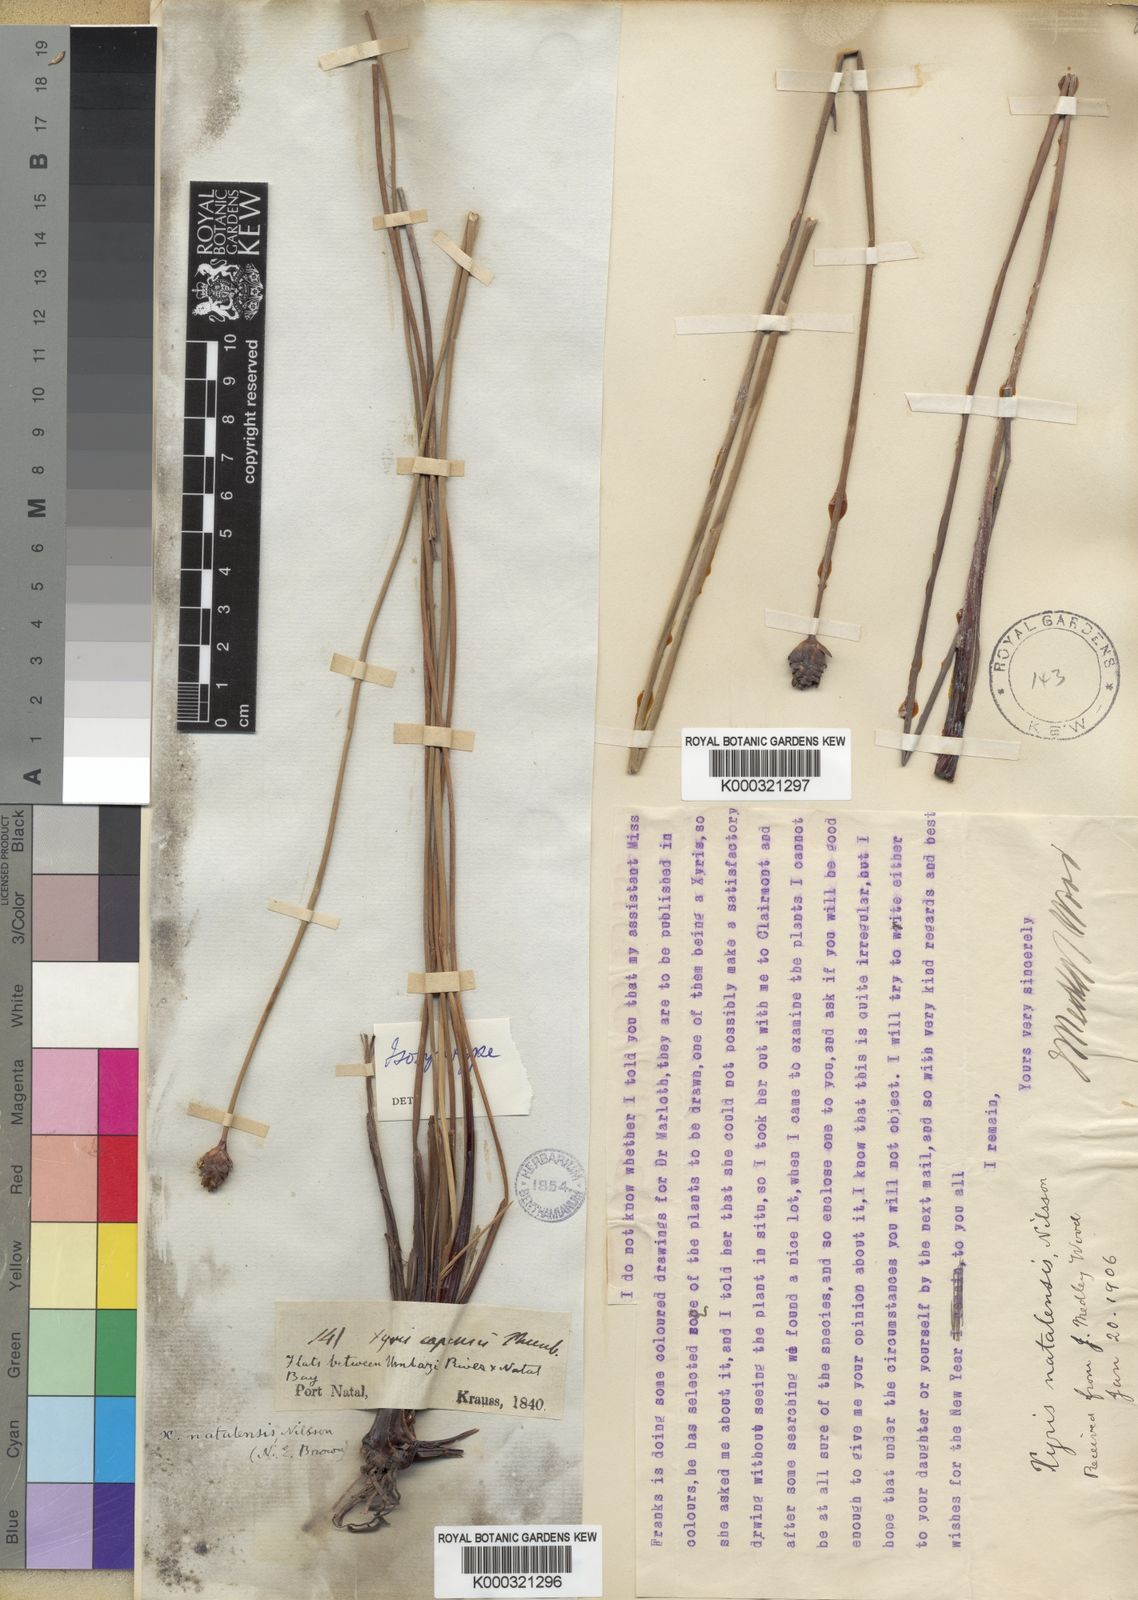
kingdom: Plantae
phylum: Tracheophyta
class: Liliopsida
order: Poales
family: Xyridaceae
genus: Xyris
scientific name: Xyris natalensis
